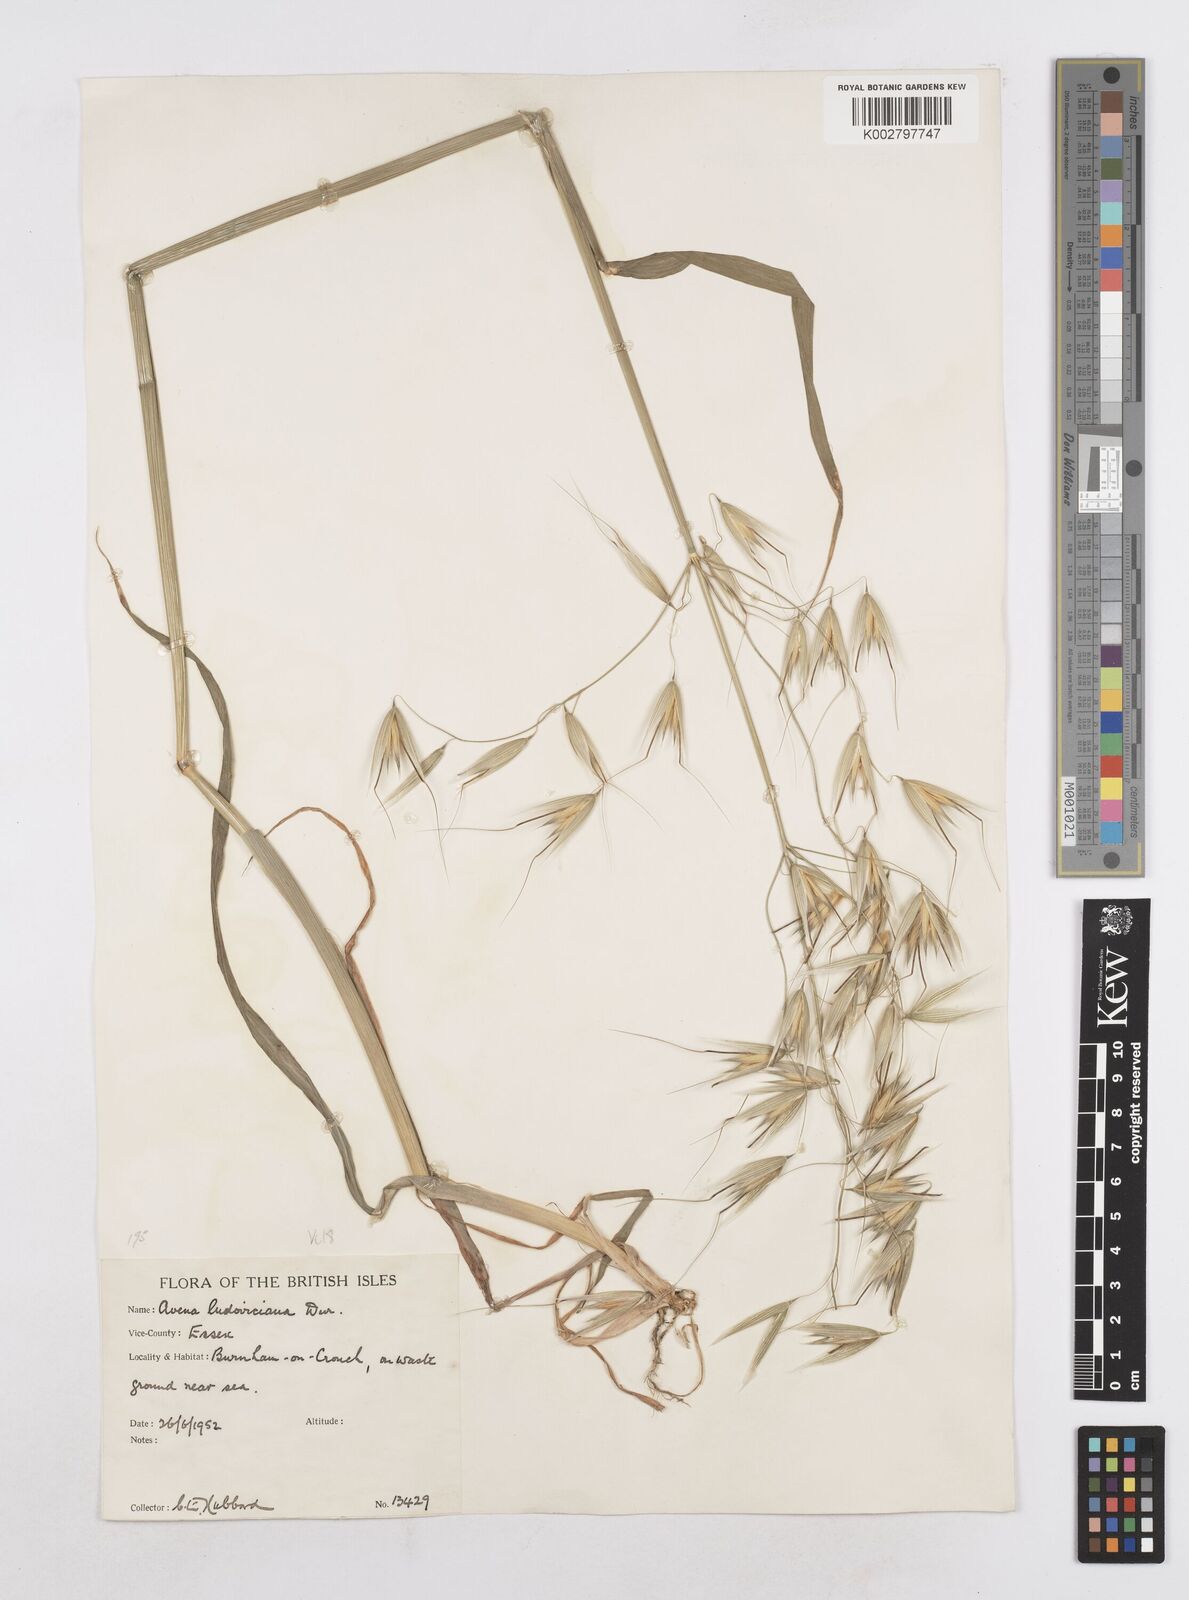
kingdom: Plantae
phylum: Tracheophyta
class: Liliopsida
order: Poales
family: Poaceae
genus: Avena
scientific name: Avena sterilis
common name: Animated oat
